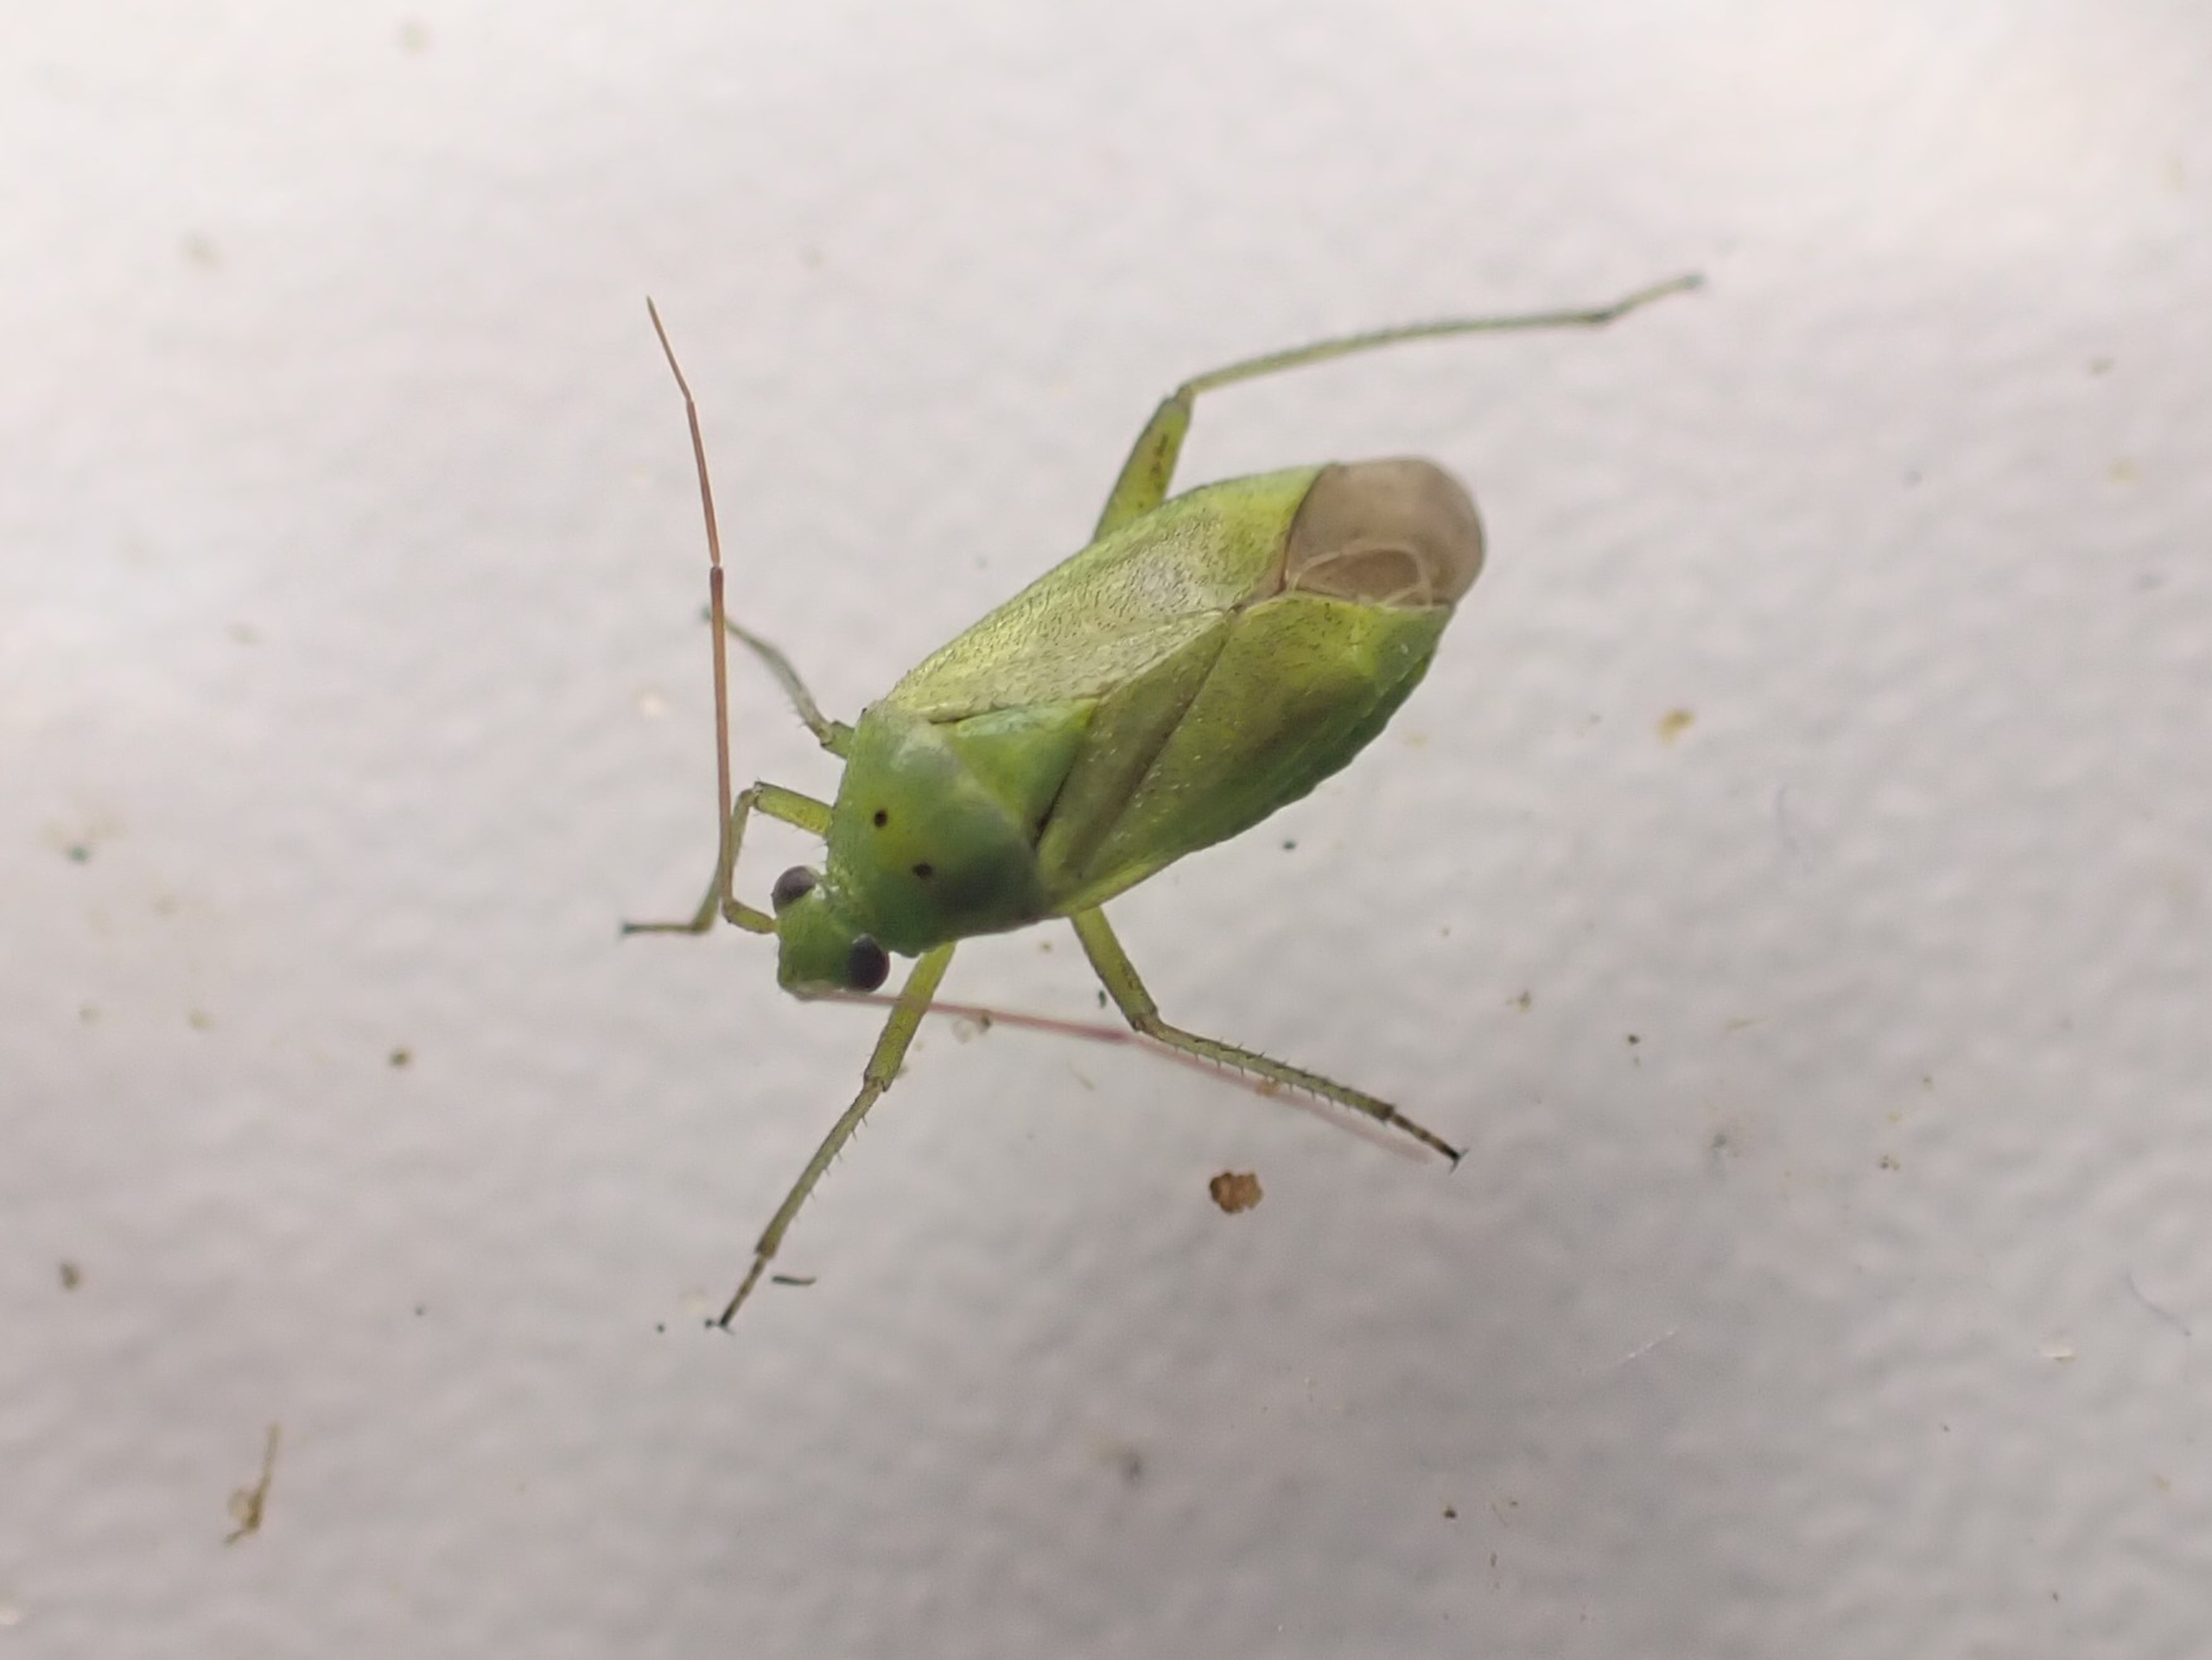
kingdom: Animalia
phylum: Arthropoda
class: Insecta
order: Hemiptera
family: Miridae
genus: Closterotomus
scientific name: Closterotomus norvegicus
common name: Toplettet bederoetæge
